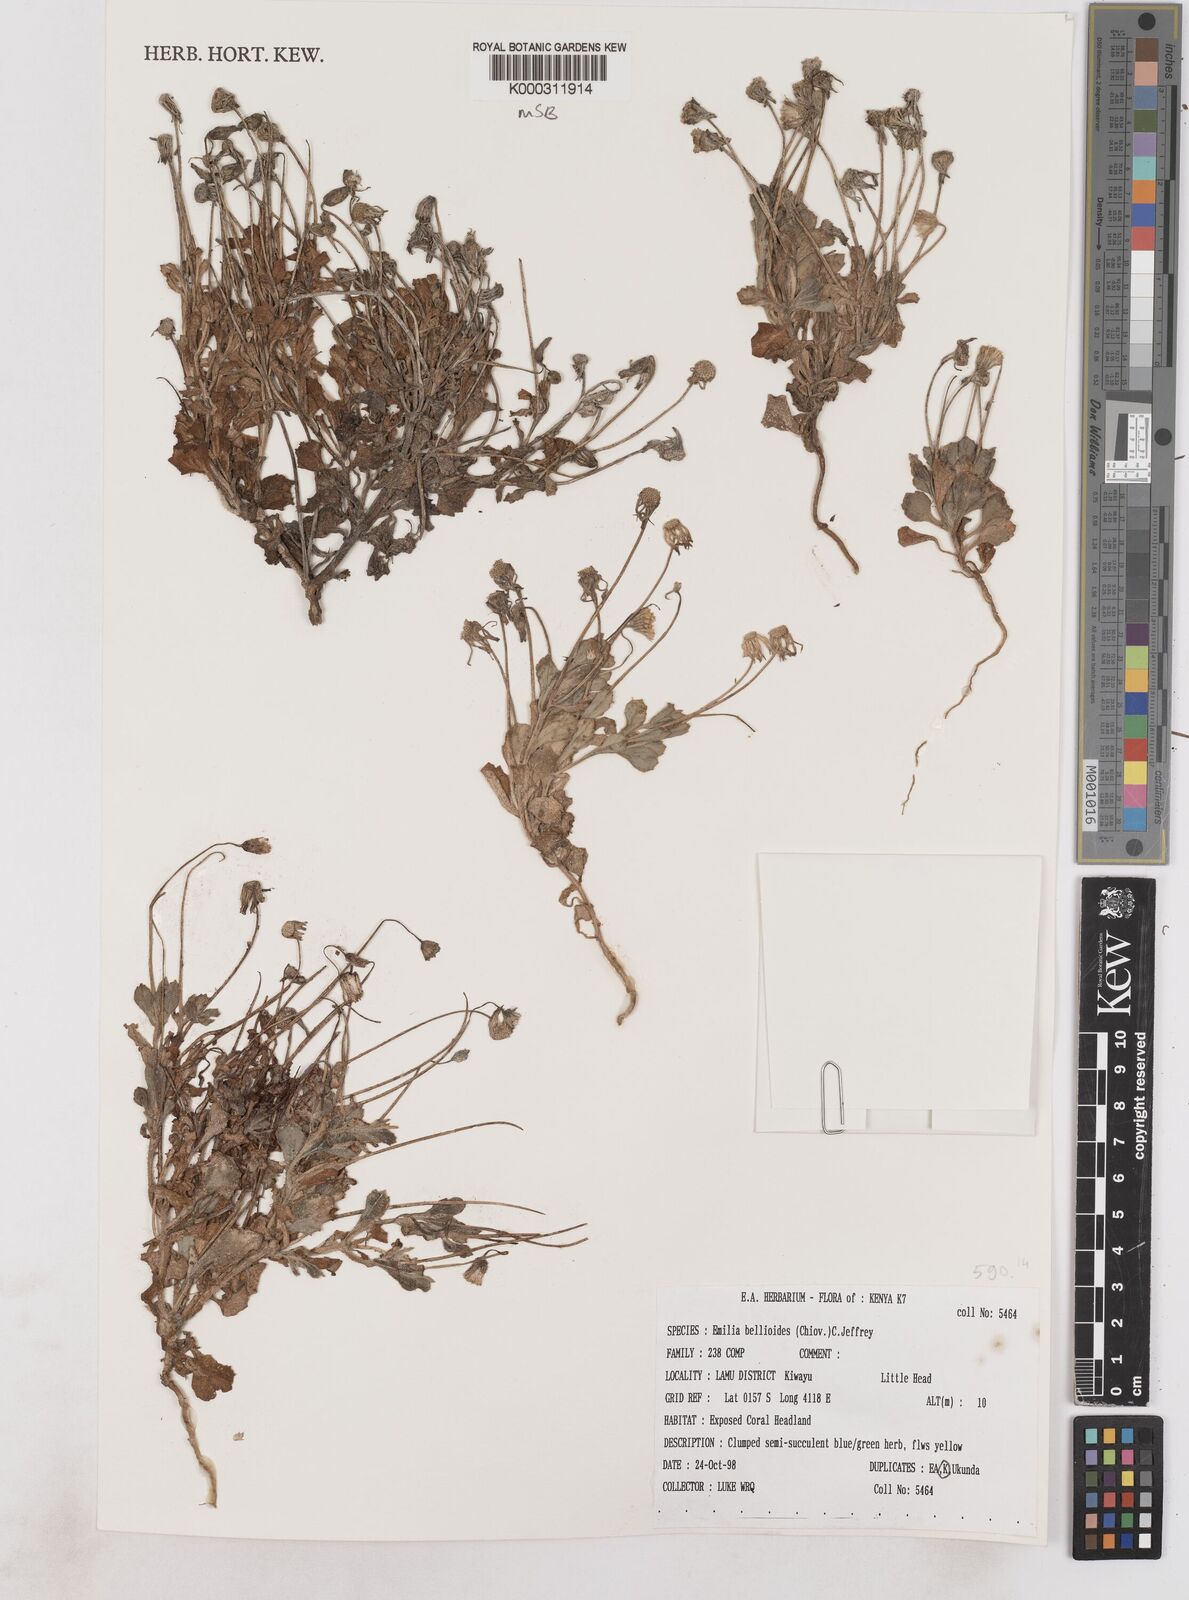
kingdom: Plantae
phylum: Tracheophyta
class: Magnoliopsida
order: Asterales
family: Asteraceae
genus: Emilia
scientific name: Emilia bellioides
